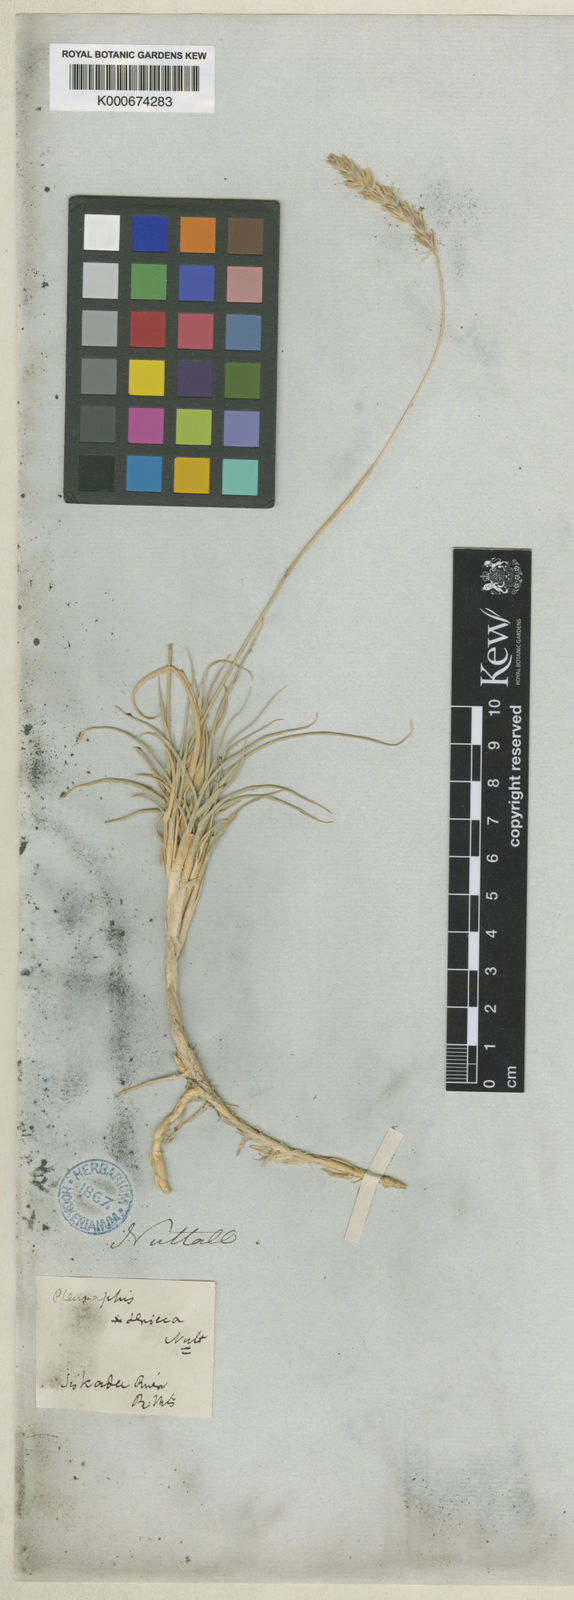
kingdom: Plantae
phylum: Tracheophyta
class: Liliopsida
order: Poales
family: Poaceae
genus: Hilaria
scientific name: Hilaria jamesii
